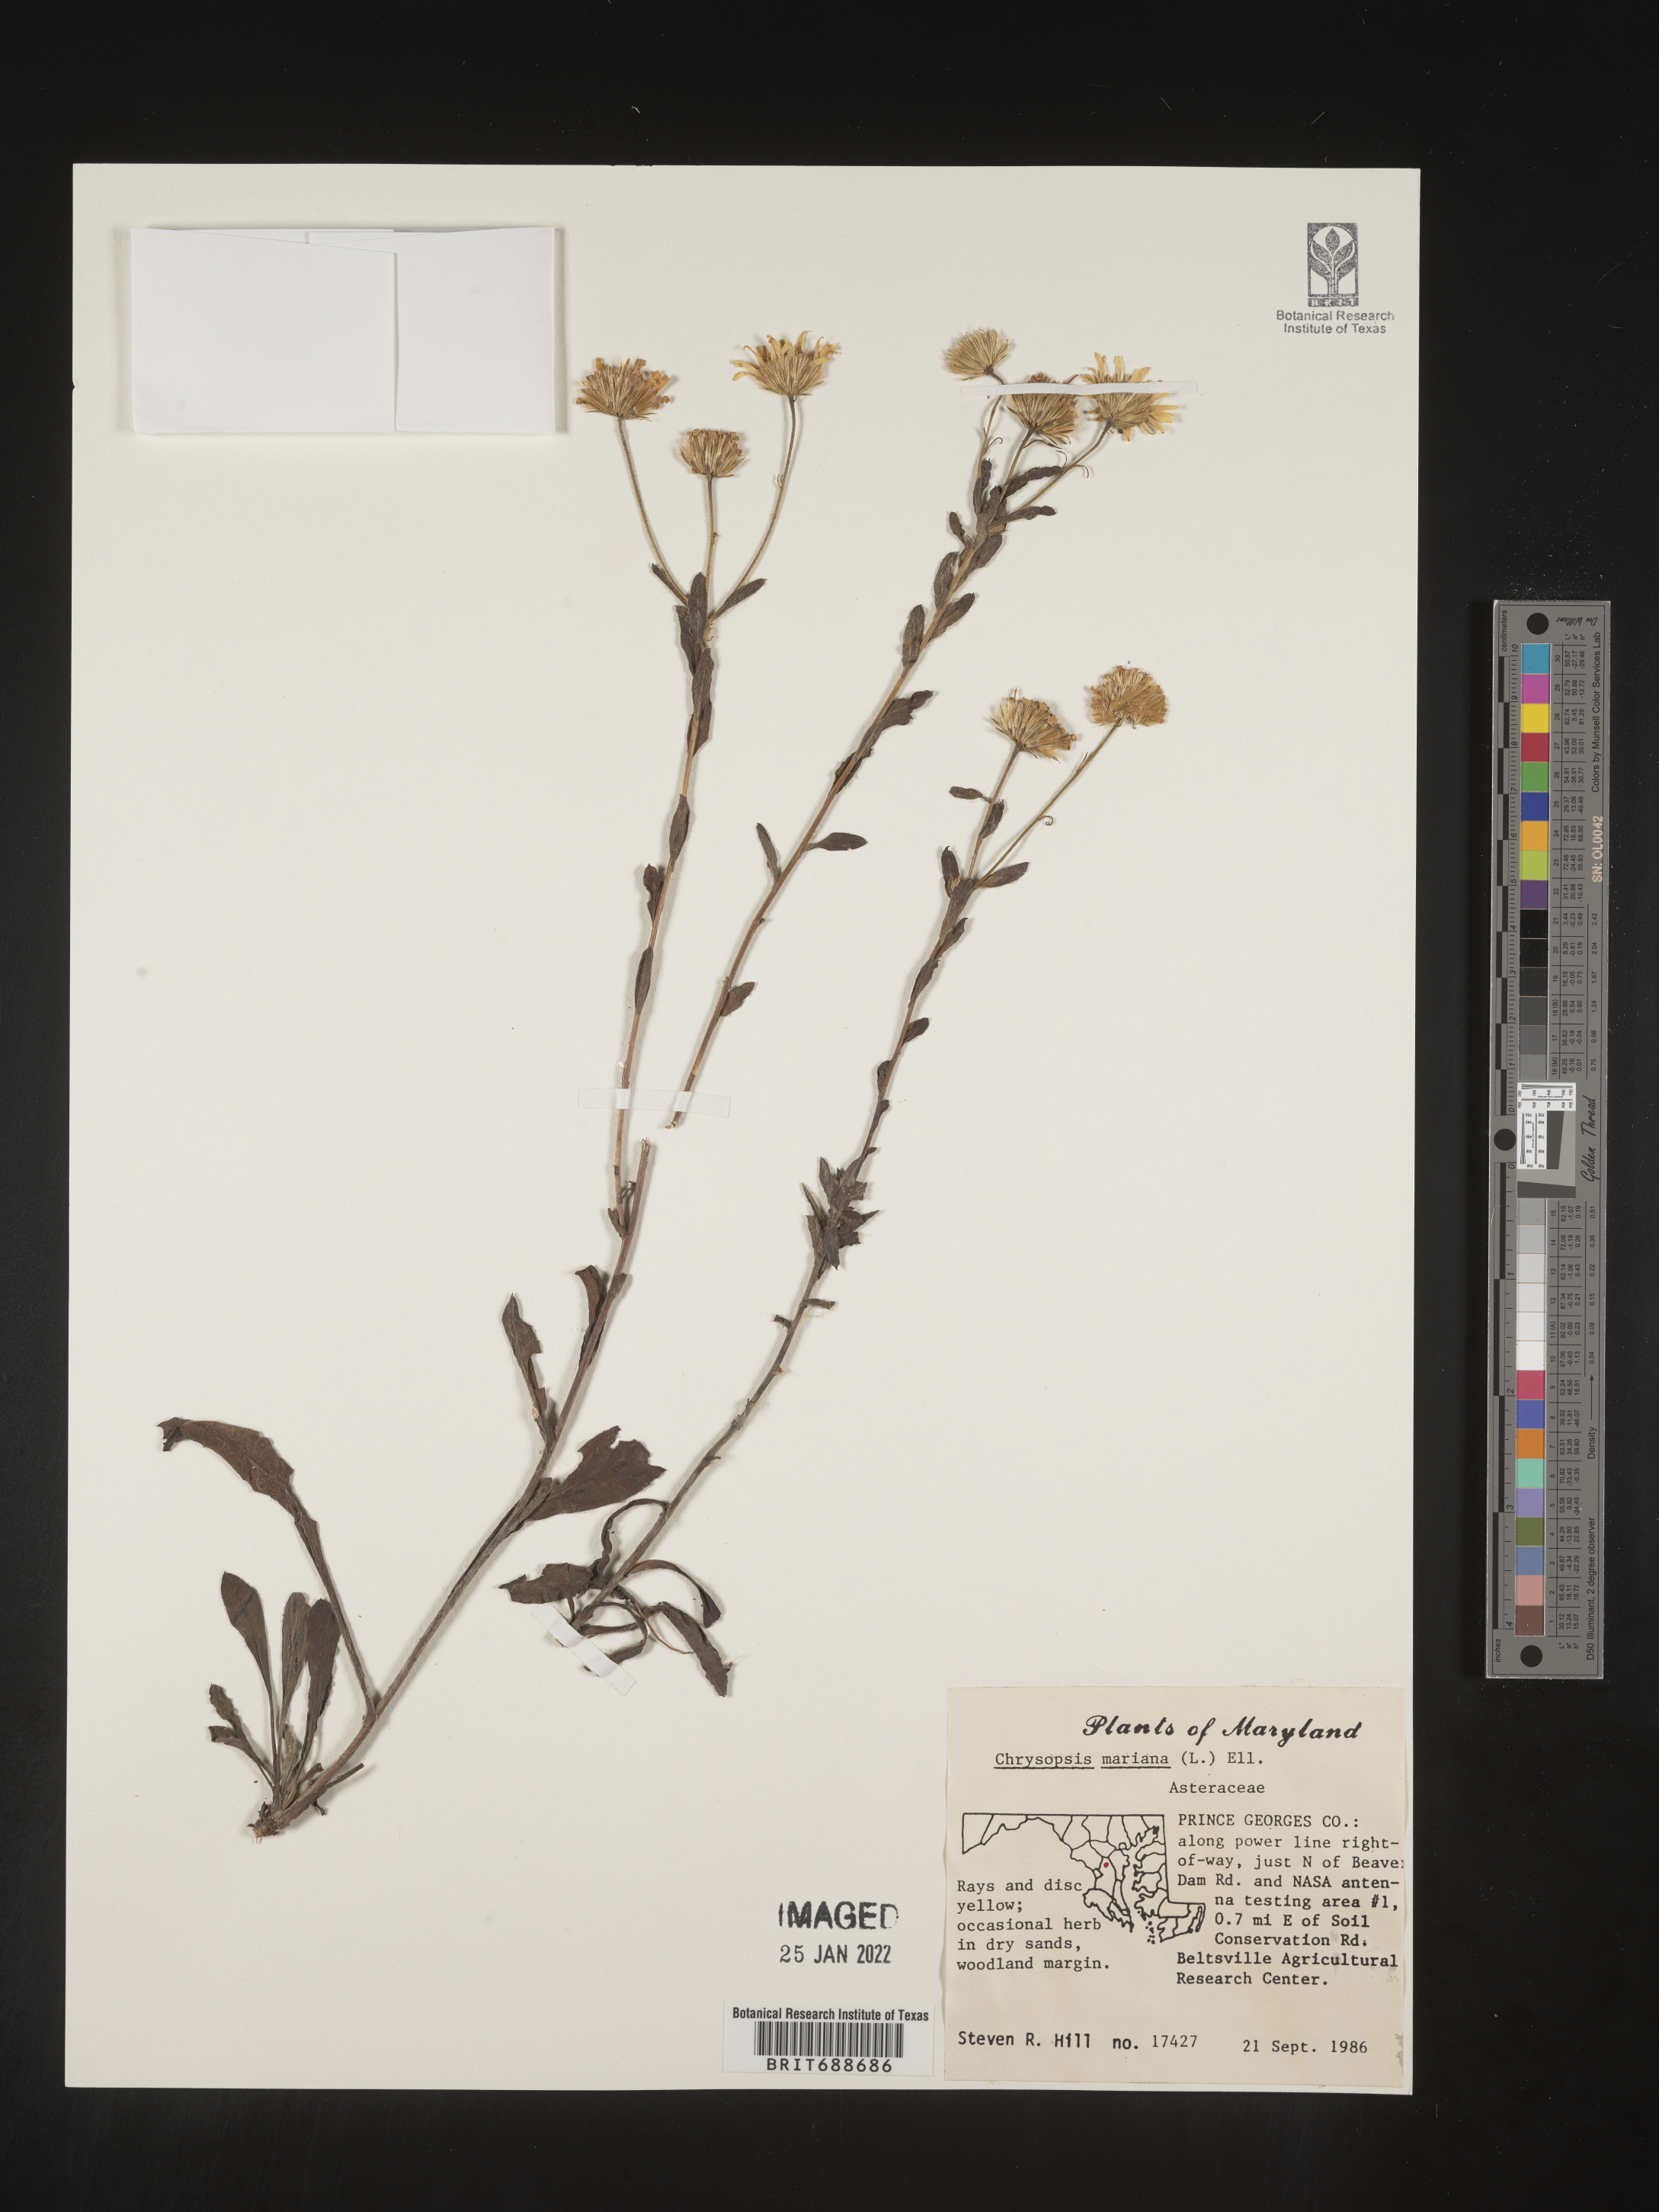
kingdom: Plantae
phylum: Tracheophyta
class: Magnoliopsida
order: Asterales
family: Asteraceae
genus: Chrysopsis
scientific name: Chrysopsis mariana
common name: Maryland golden-aster
